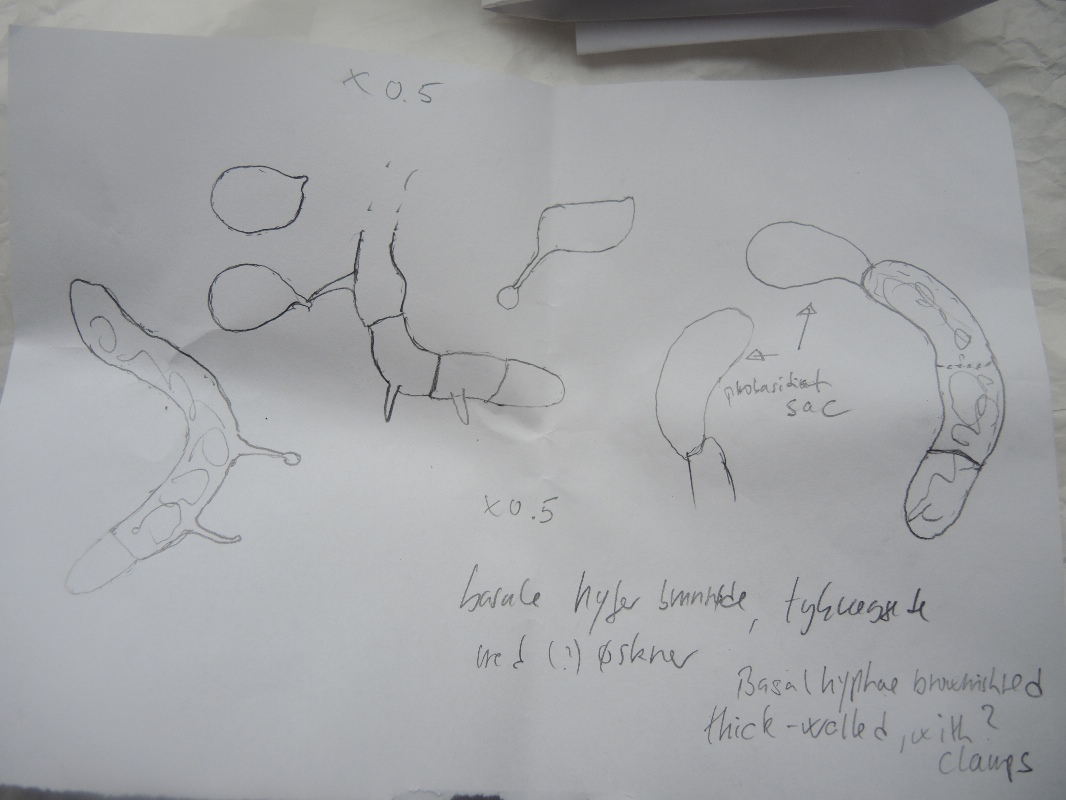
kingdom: Fungi
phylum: Basidiomycota
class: Atractiellomycetes
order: Atractiellales
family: Phleogenaceae
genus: Helicogloea
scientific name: Helicogloea sebacea
